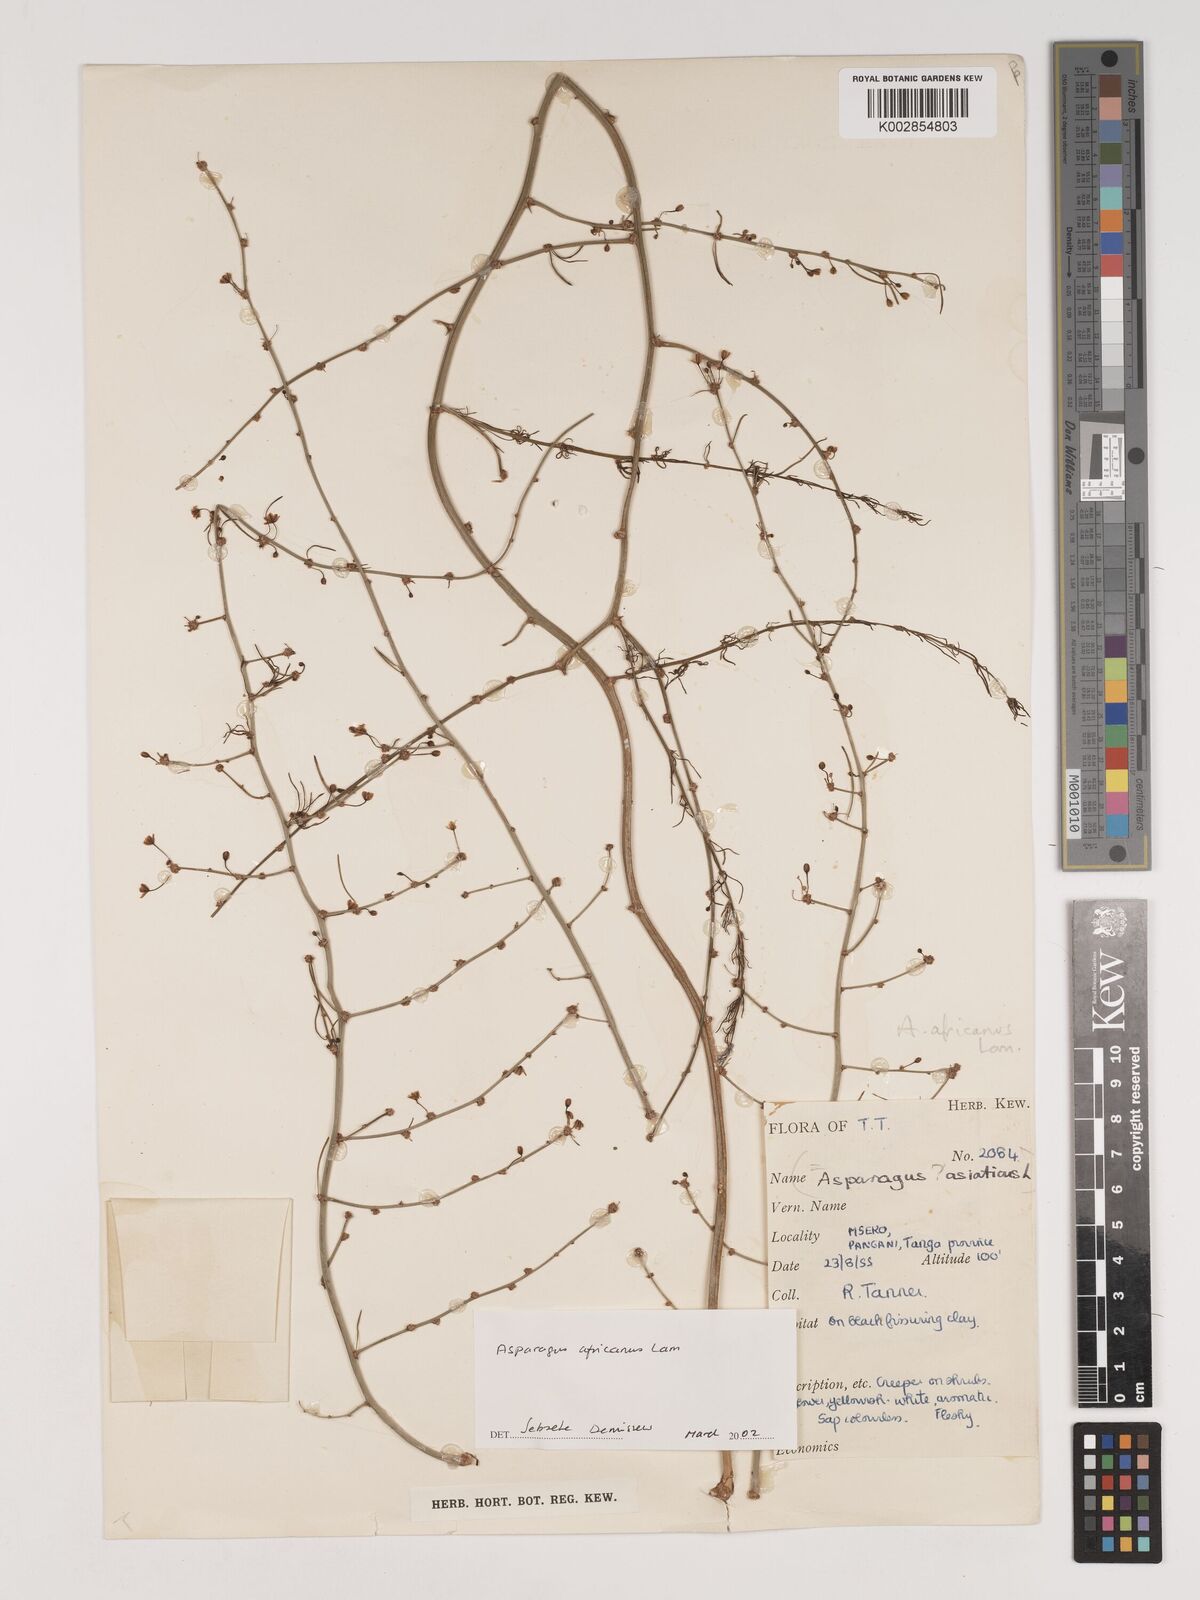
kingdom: Plantae
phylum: Tracheophyta
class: Liliopsida
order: Asparagales
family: Asparagaceae
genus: Asparagus
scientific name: Asparagus africanus
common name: Asparagus-fern
